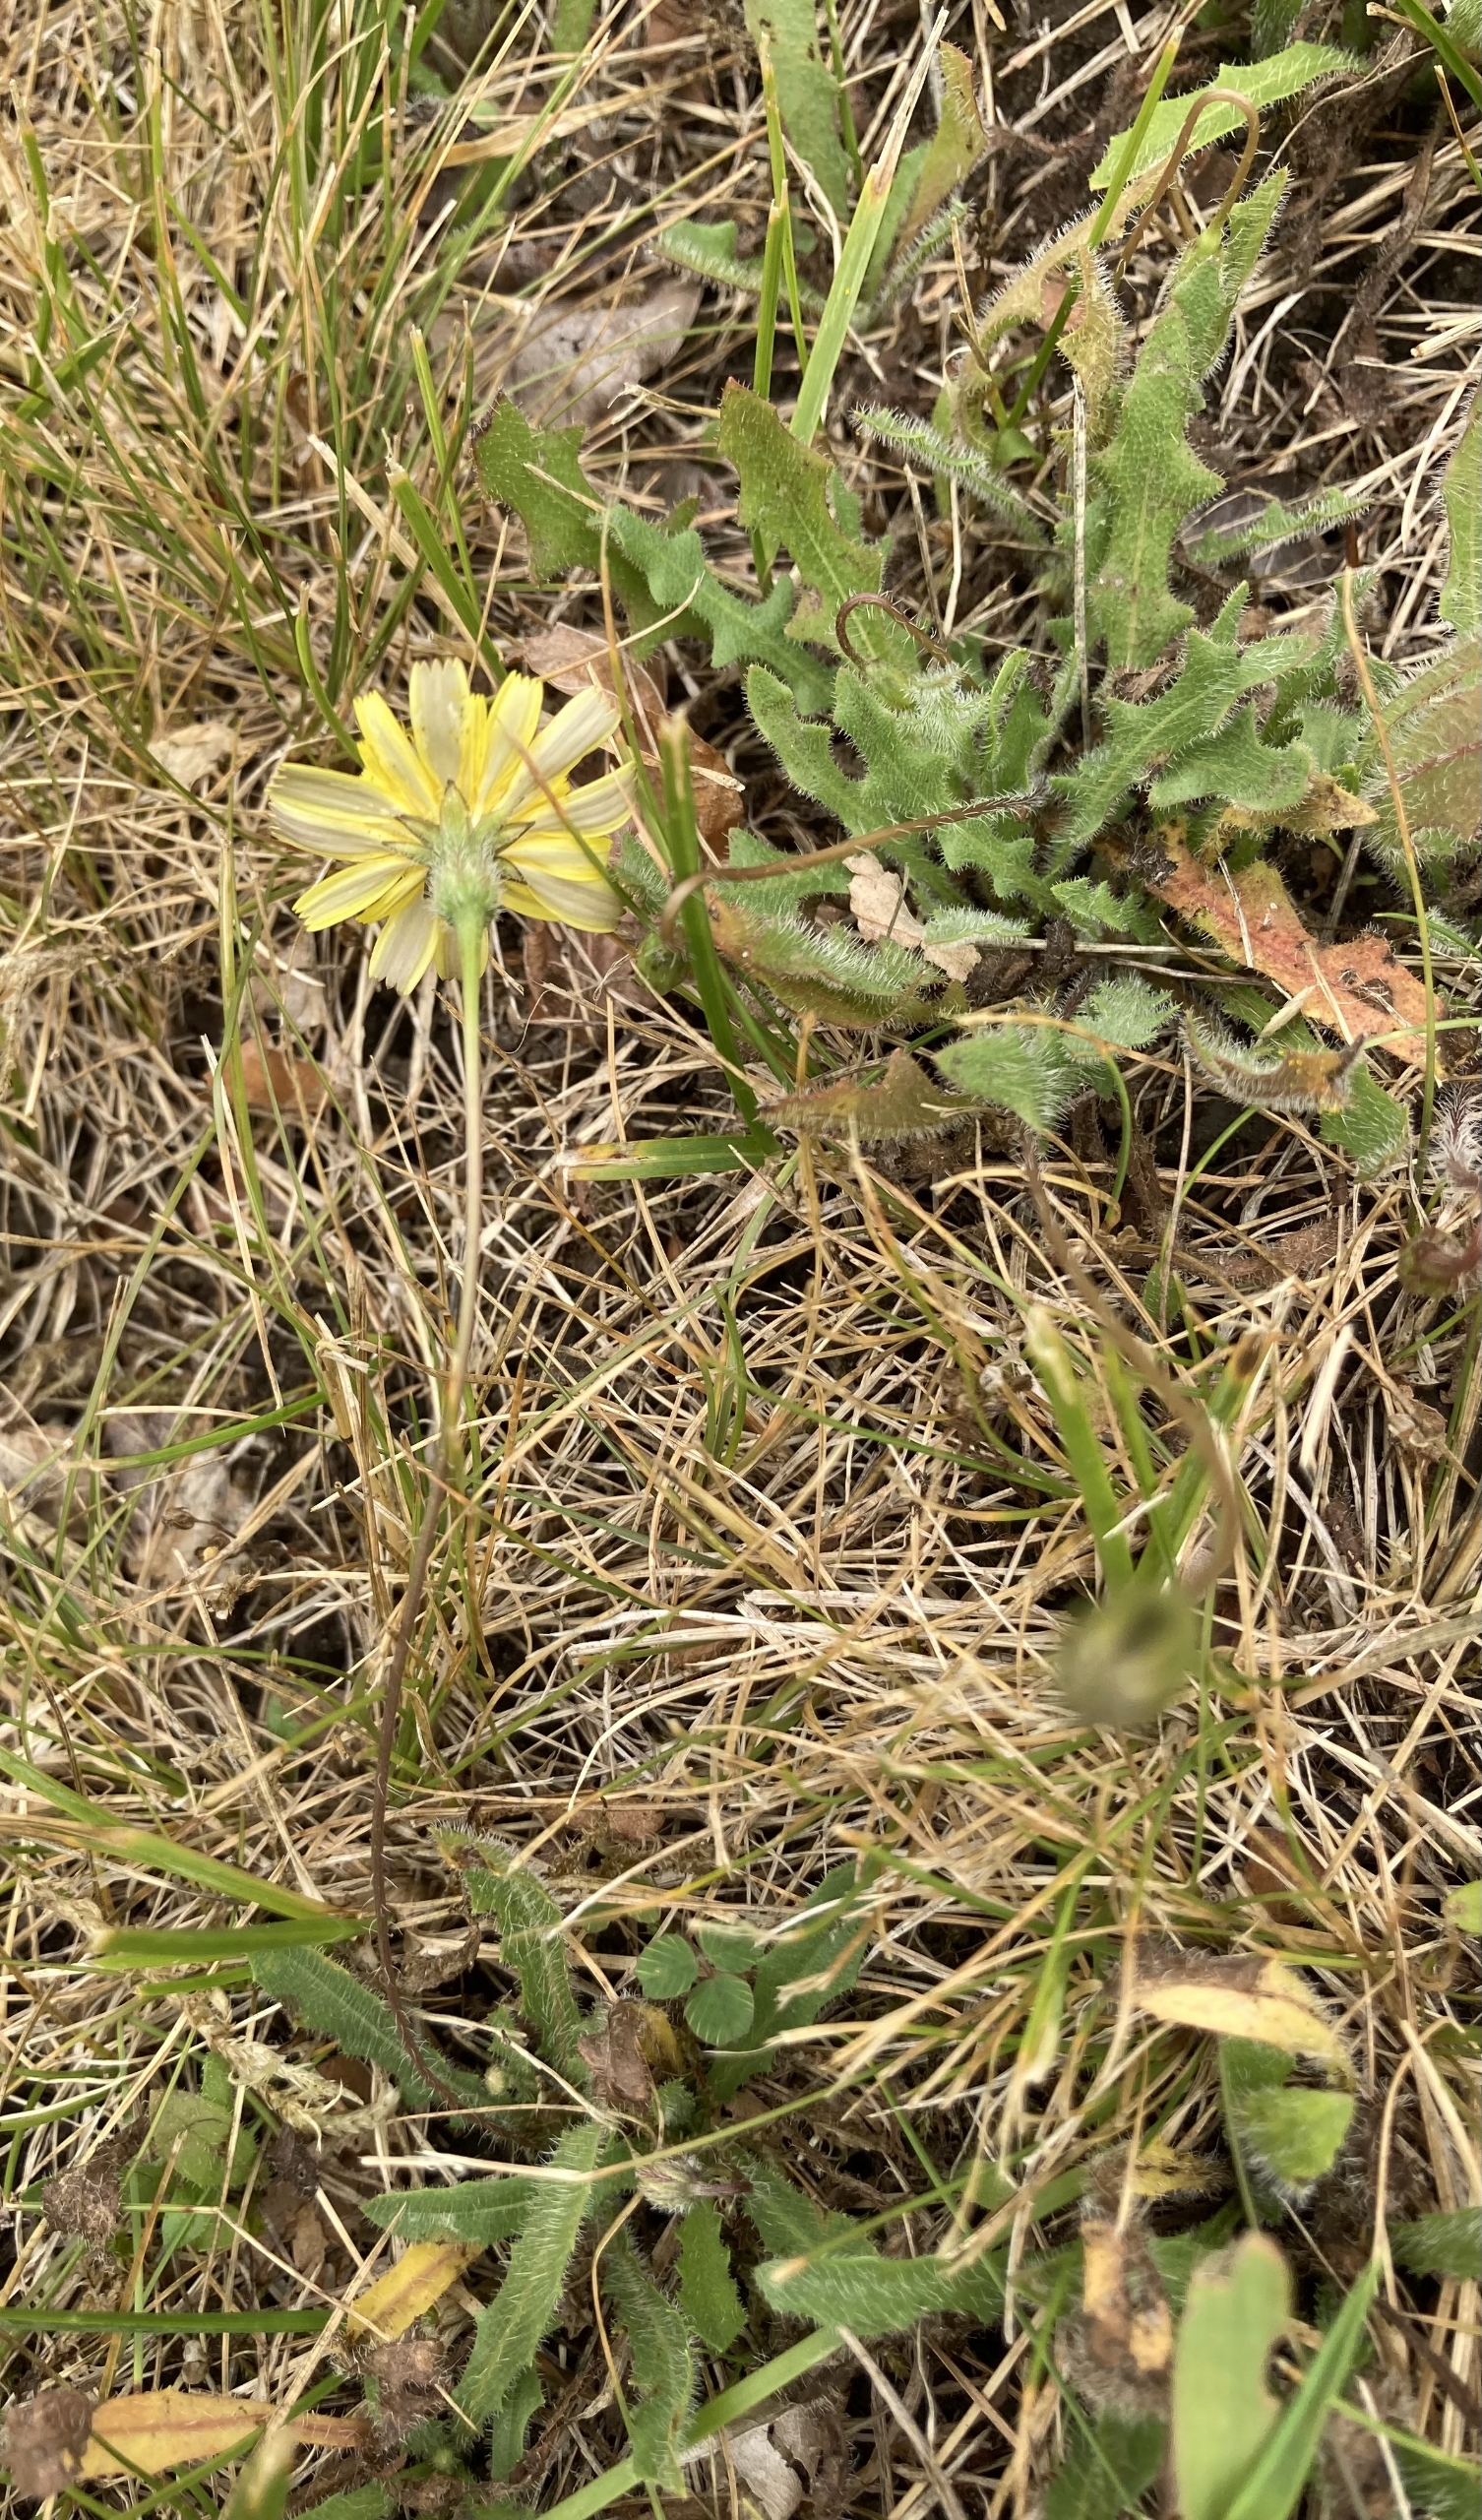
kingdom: Plantae
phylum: Tracheophyta
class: Magnoliopsida
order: Asterales
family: Asteraceae
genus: Thrincia
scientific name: Thrincia saxatilis
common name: Hundesalat
